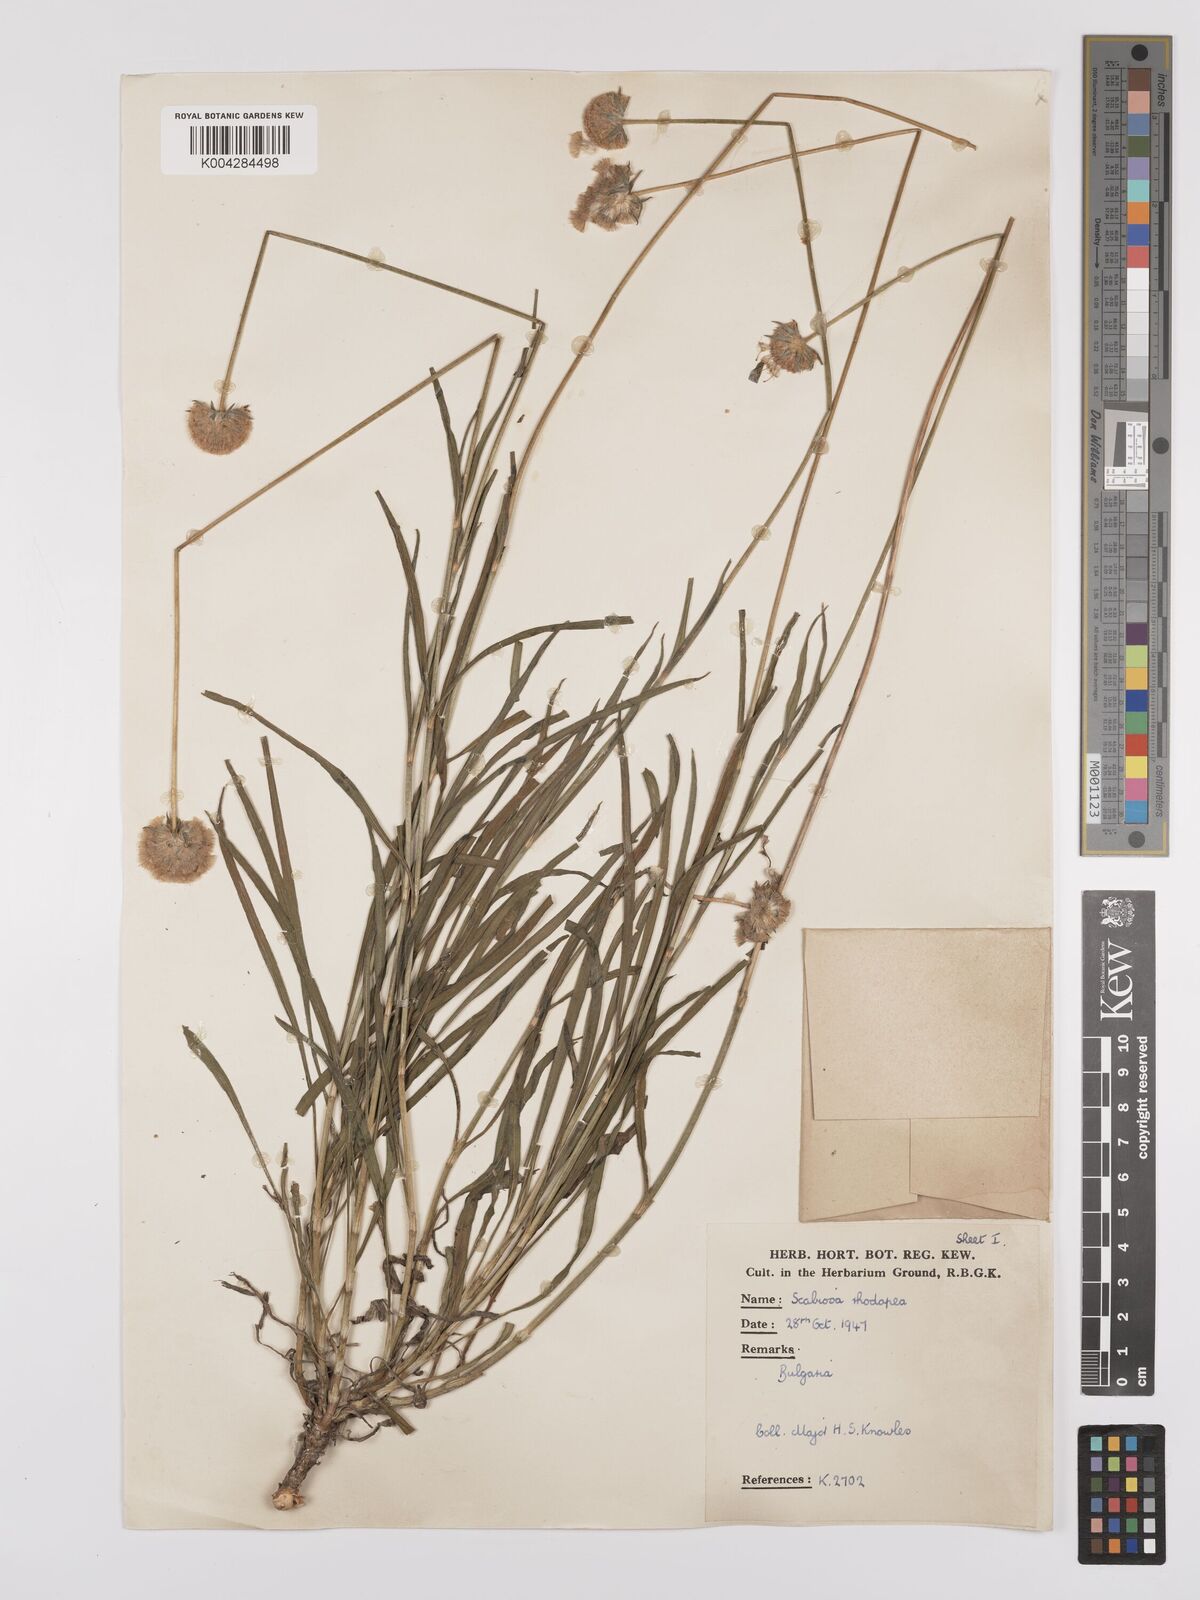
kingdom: Plantae
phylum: Tracheophyta
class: Magnoliopsida
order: Dipsacales
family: Caprifoliaceae
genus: Scabiosa
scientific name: Scabiosa ochroleuca
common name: Cream pincushions
